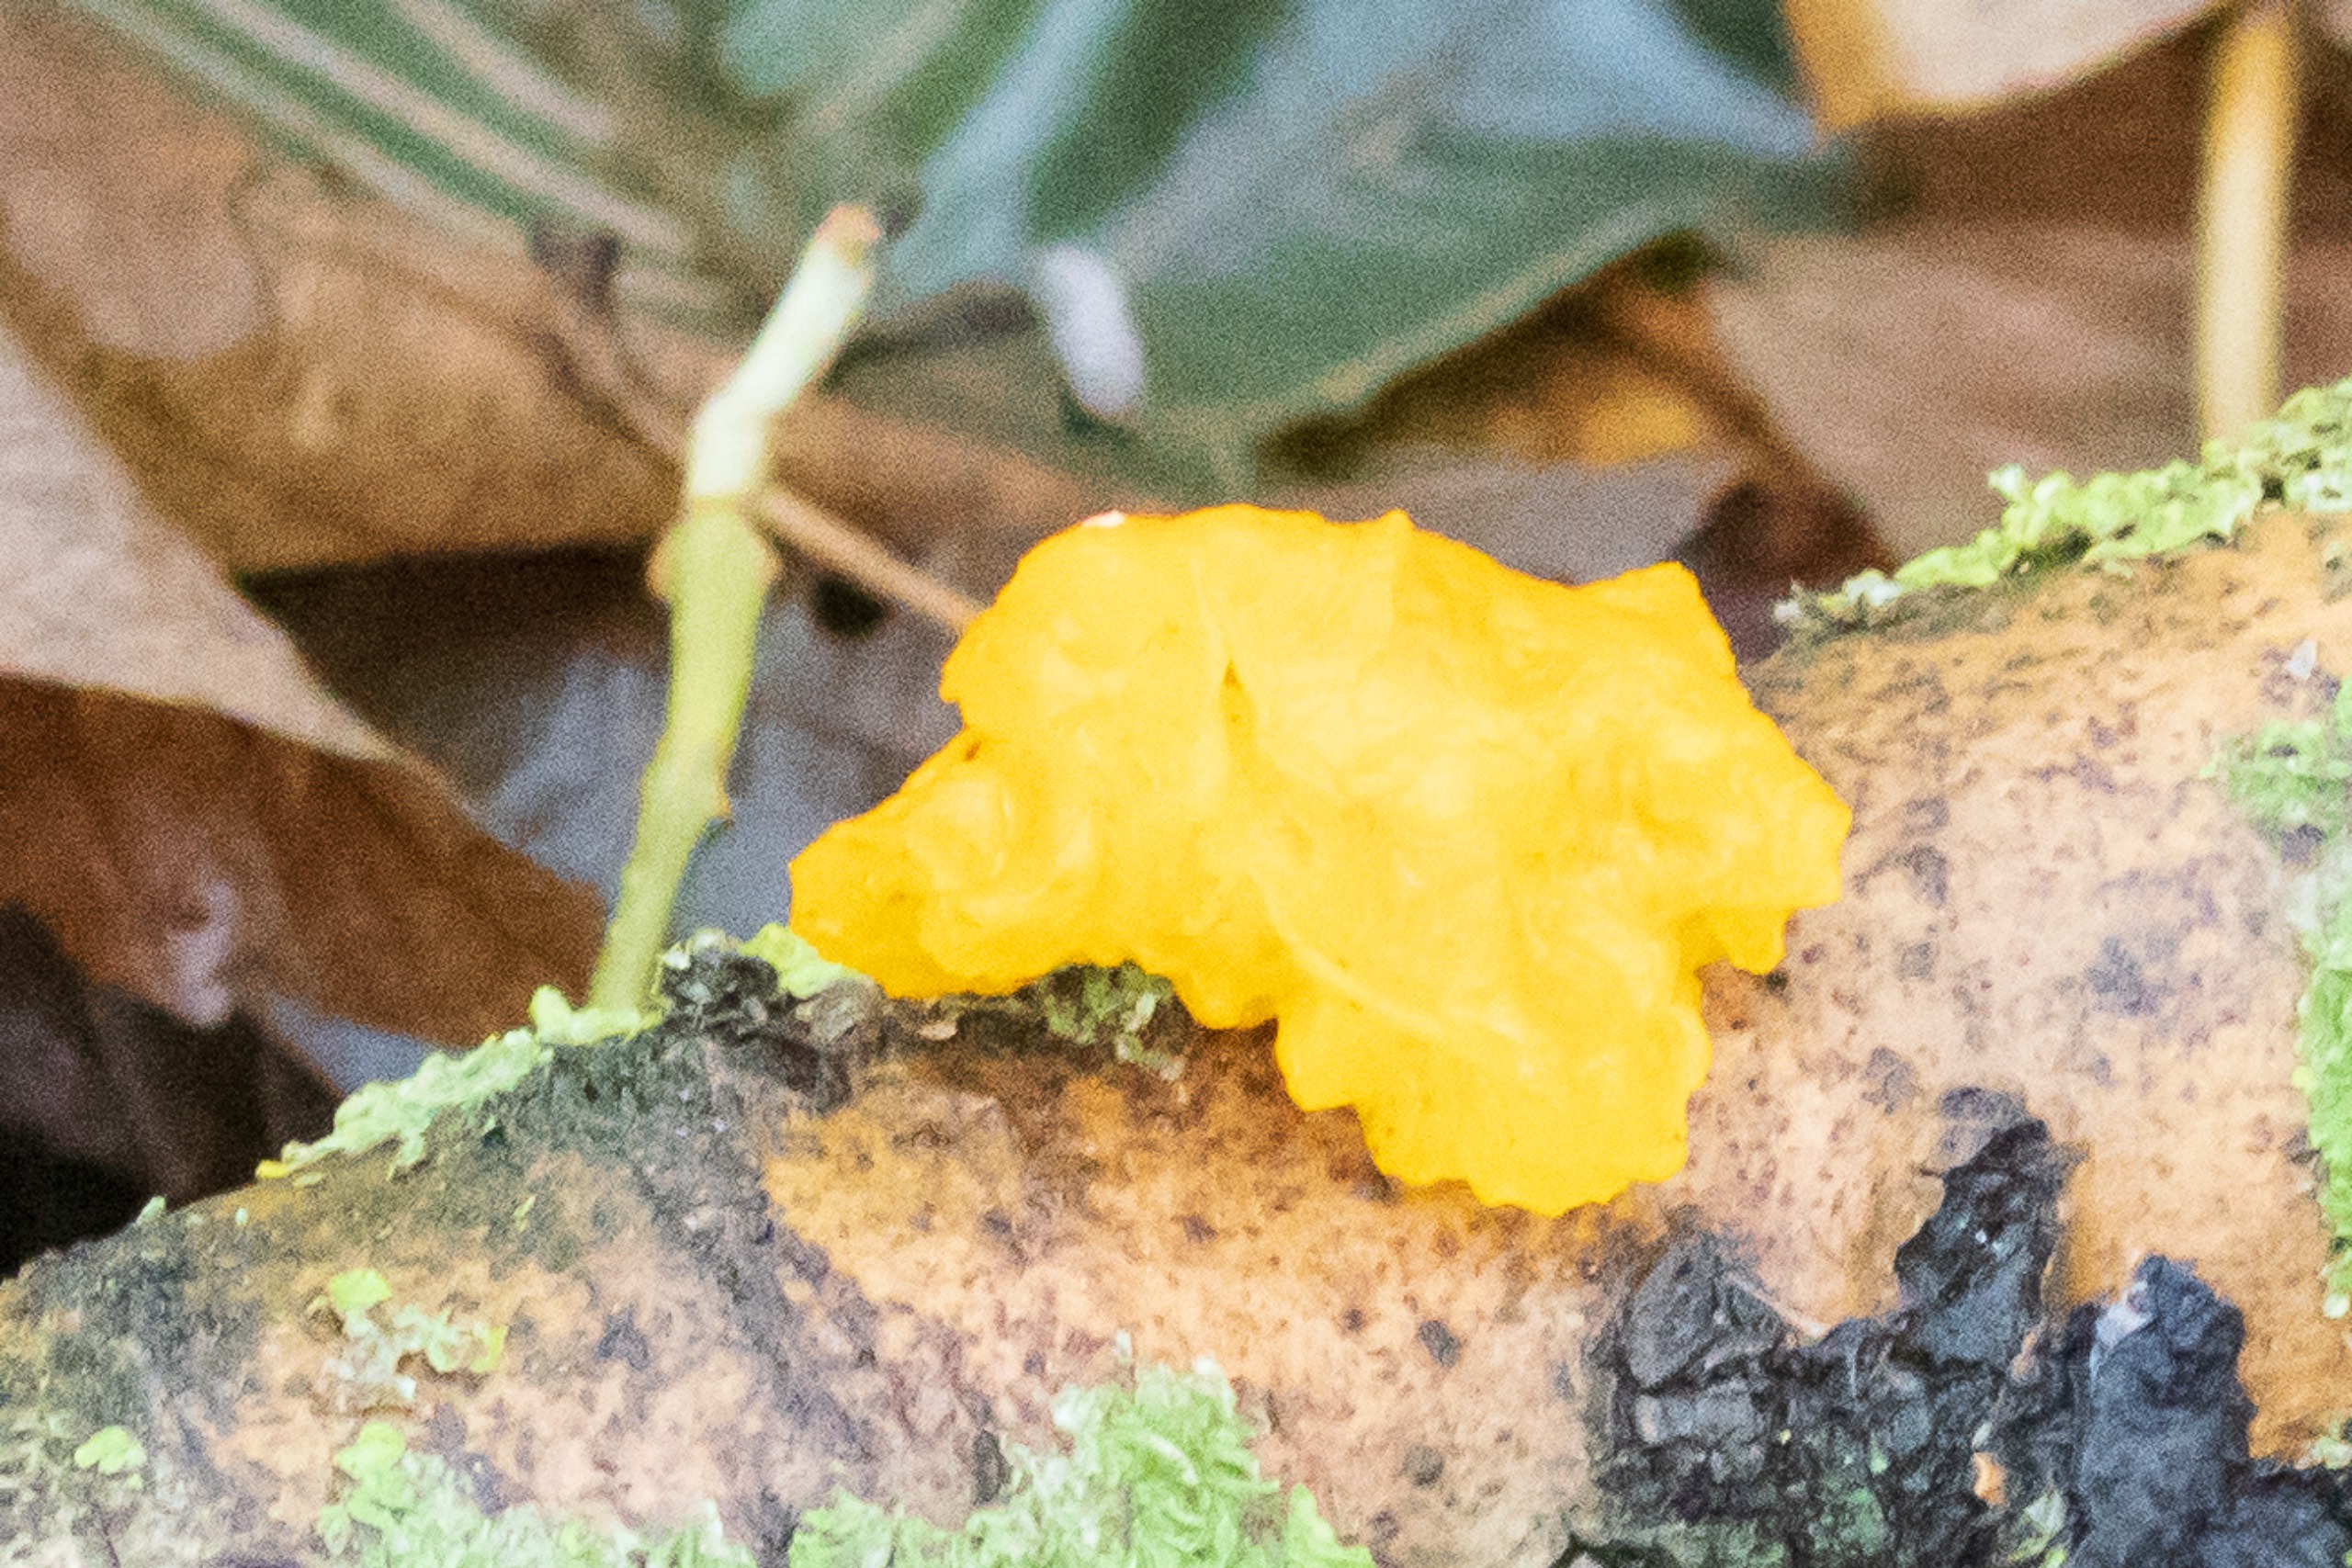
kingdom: Fungi
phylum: Basidiomycota
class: Tremellomycetes
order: Tremellales
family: Tremellaceae
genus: Tremella
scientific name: Tremella mesenterica
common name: Gul bævresvamp
